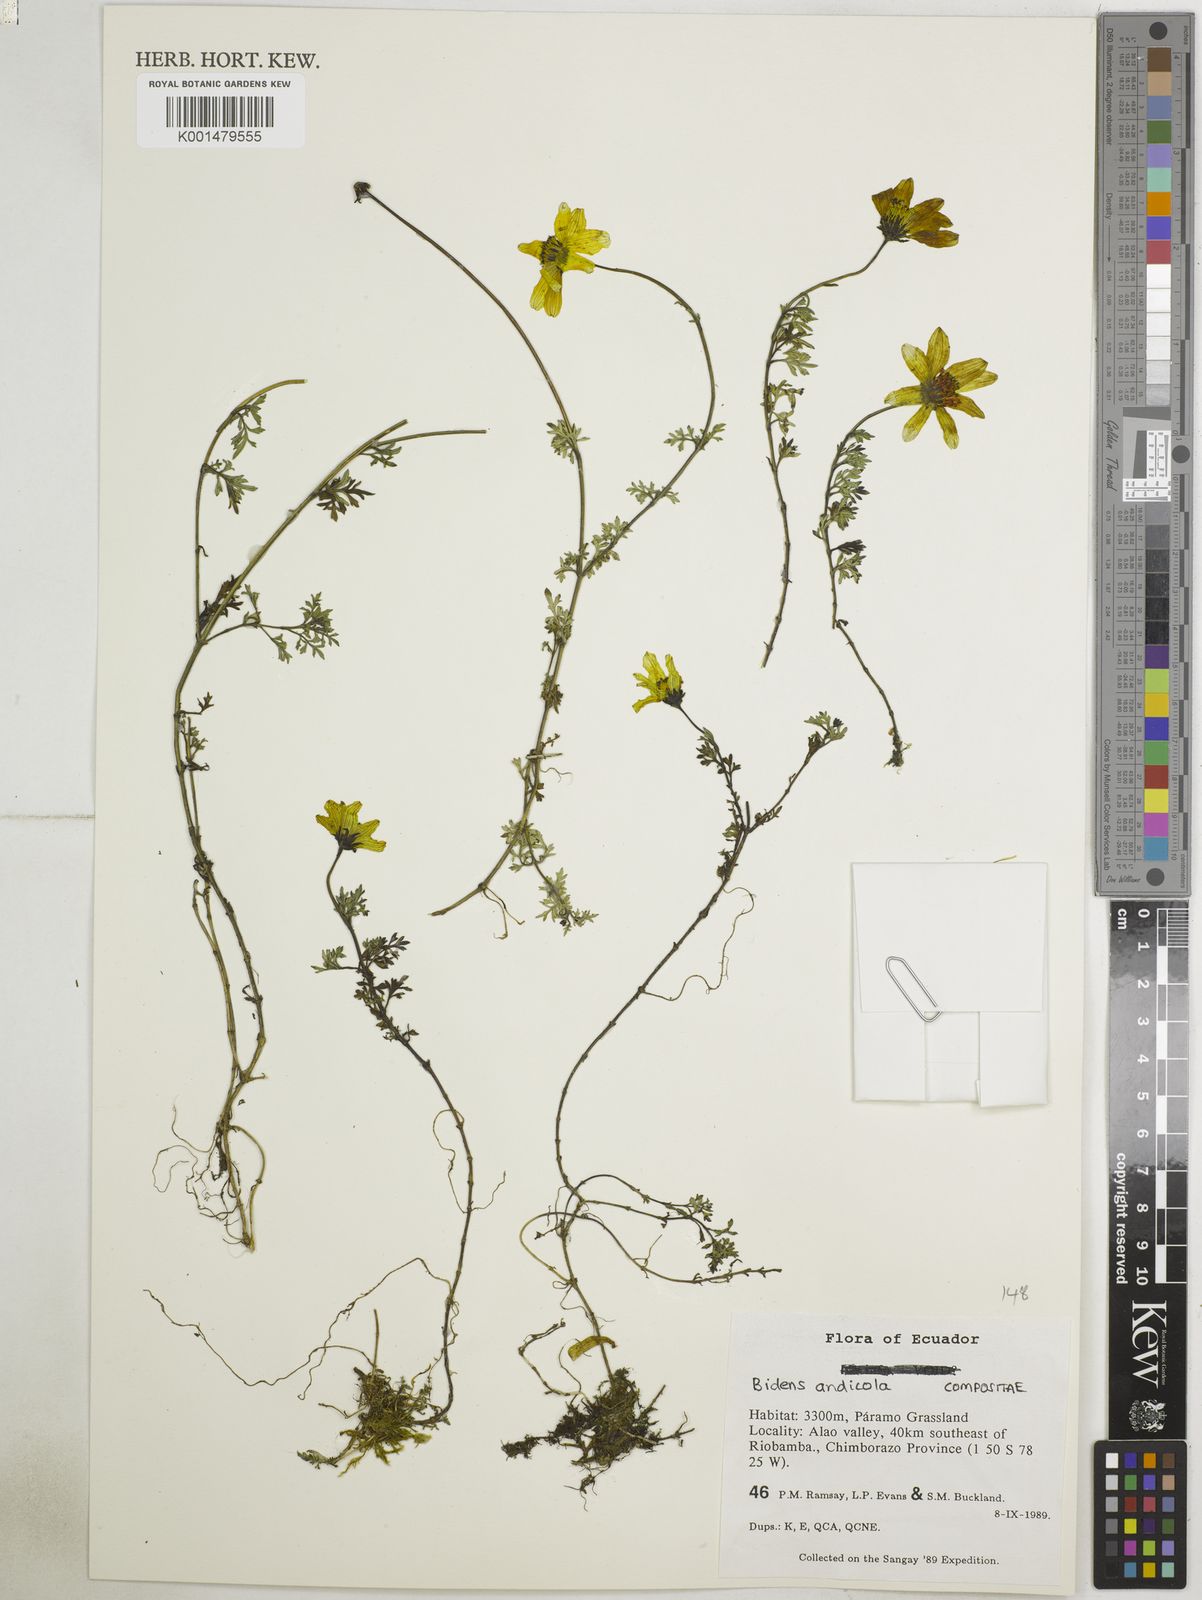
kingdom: Plantae
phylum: Tracheophyta
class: Magnoliopsida
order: Asterales
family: Asteraceae
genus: Bidens
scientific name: Bidens andicola
